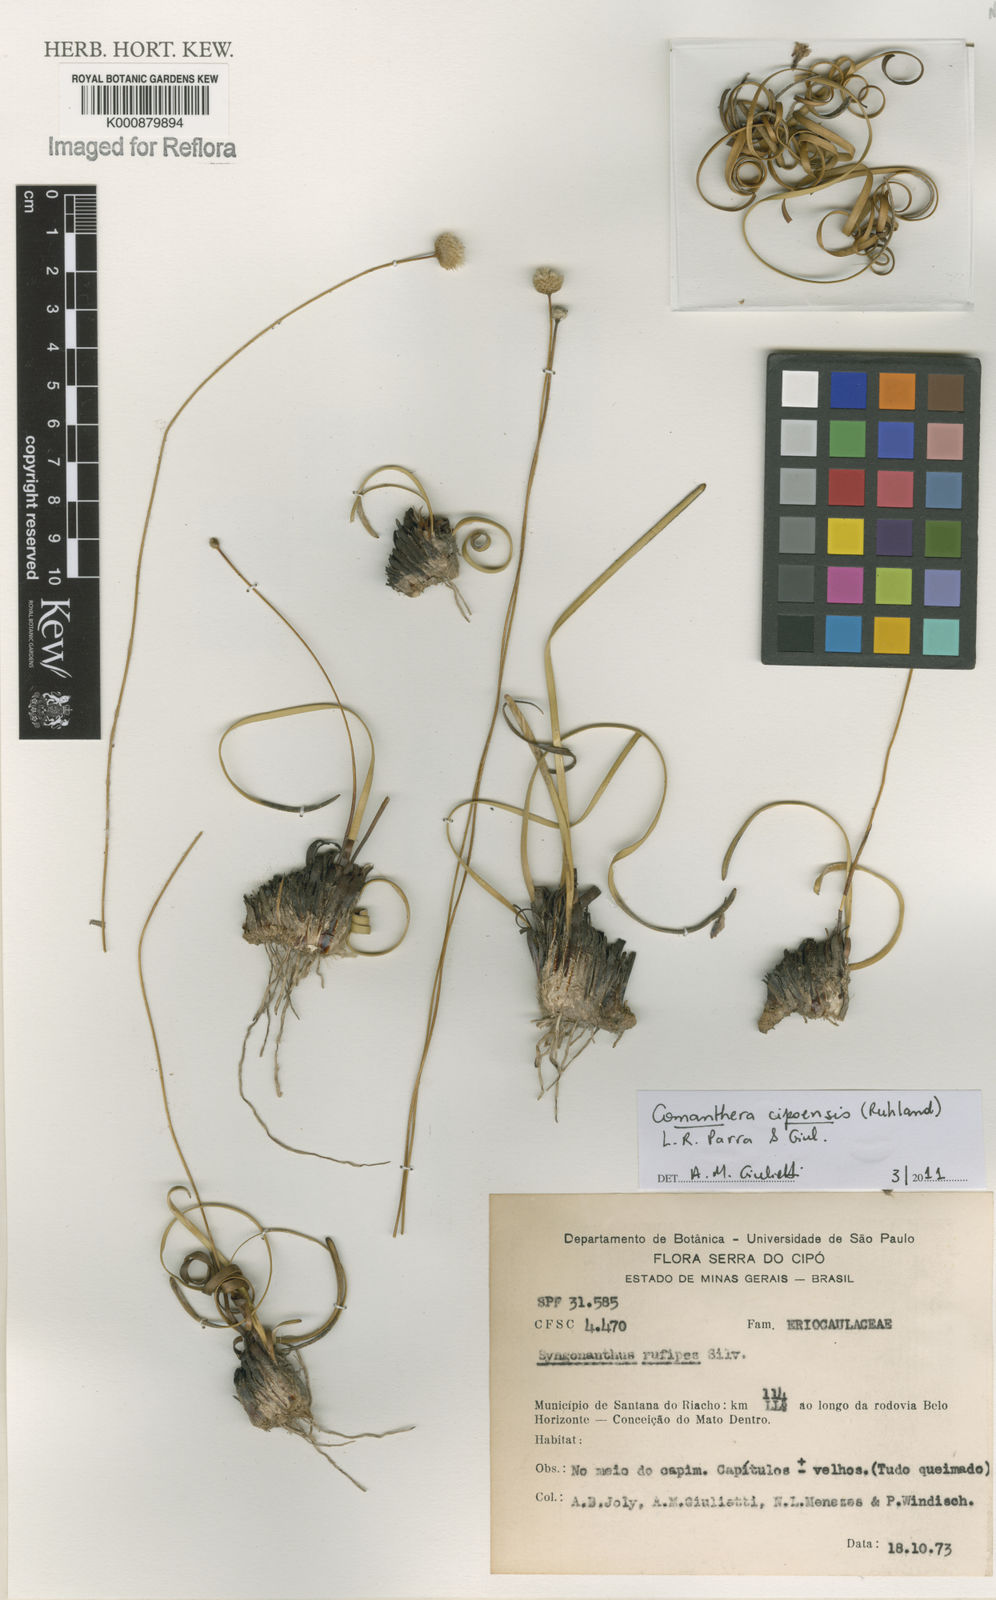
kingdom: Plantae
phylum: Tracheophyta
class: Liliopsida
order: Poales
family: Eriocaulaceae
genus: Comanthera
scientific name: Comanthera cipoensis
